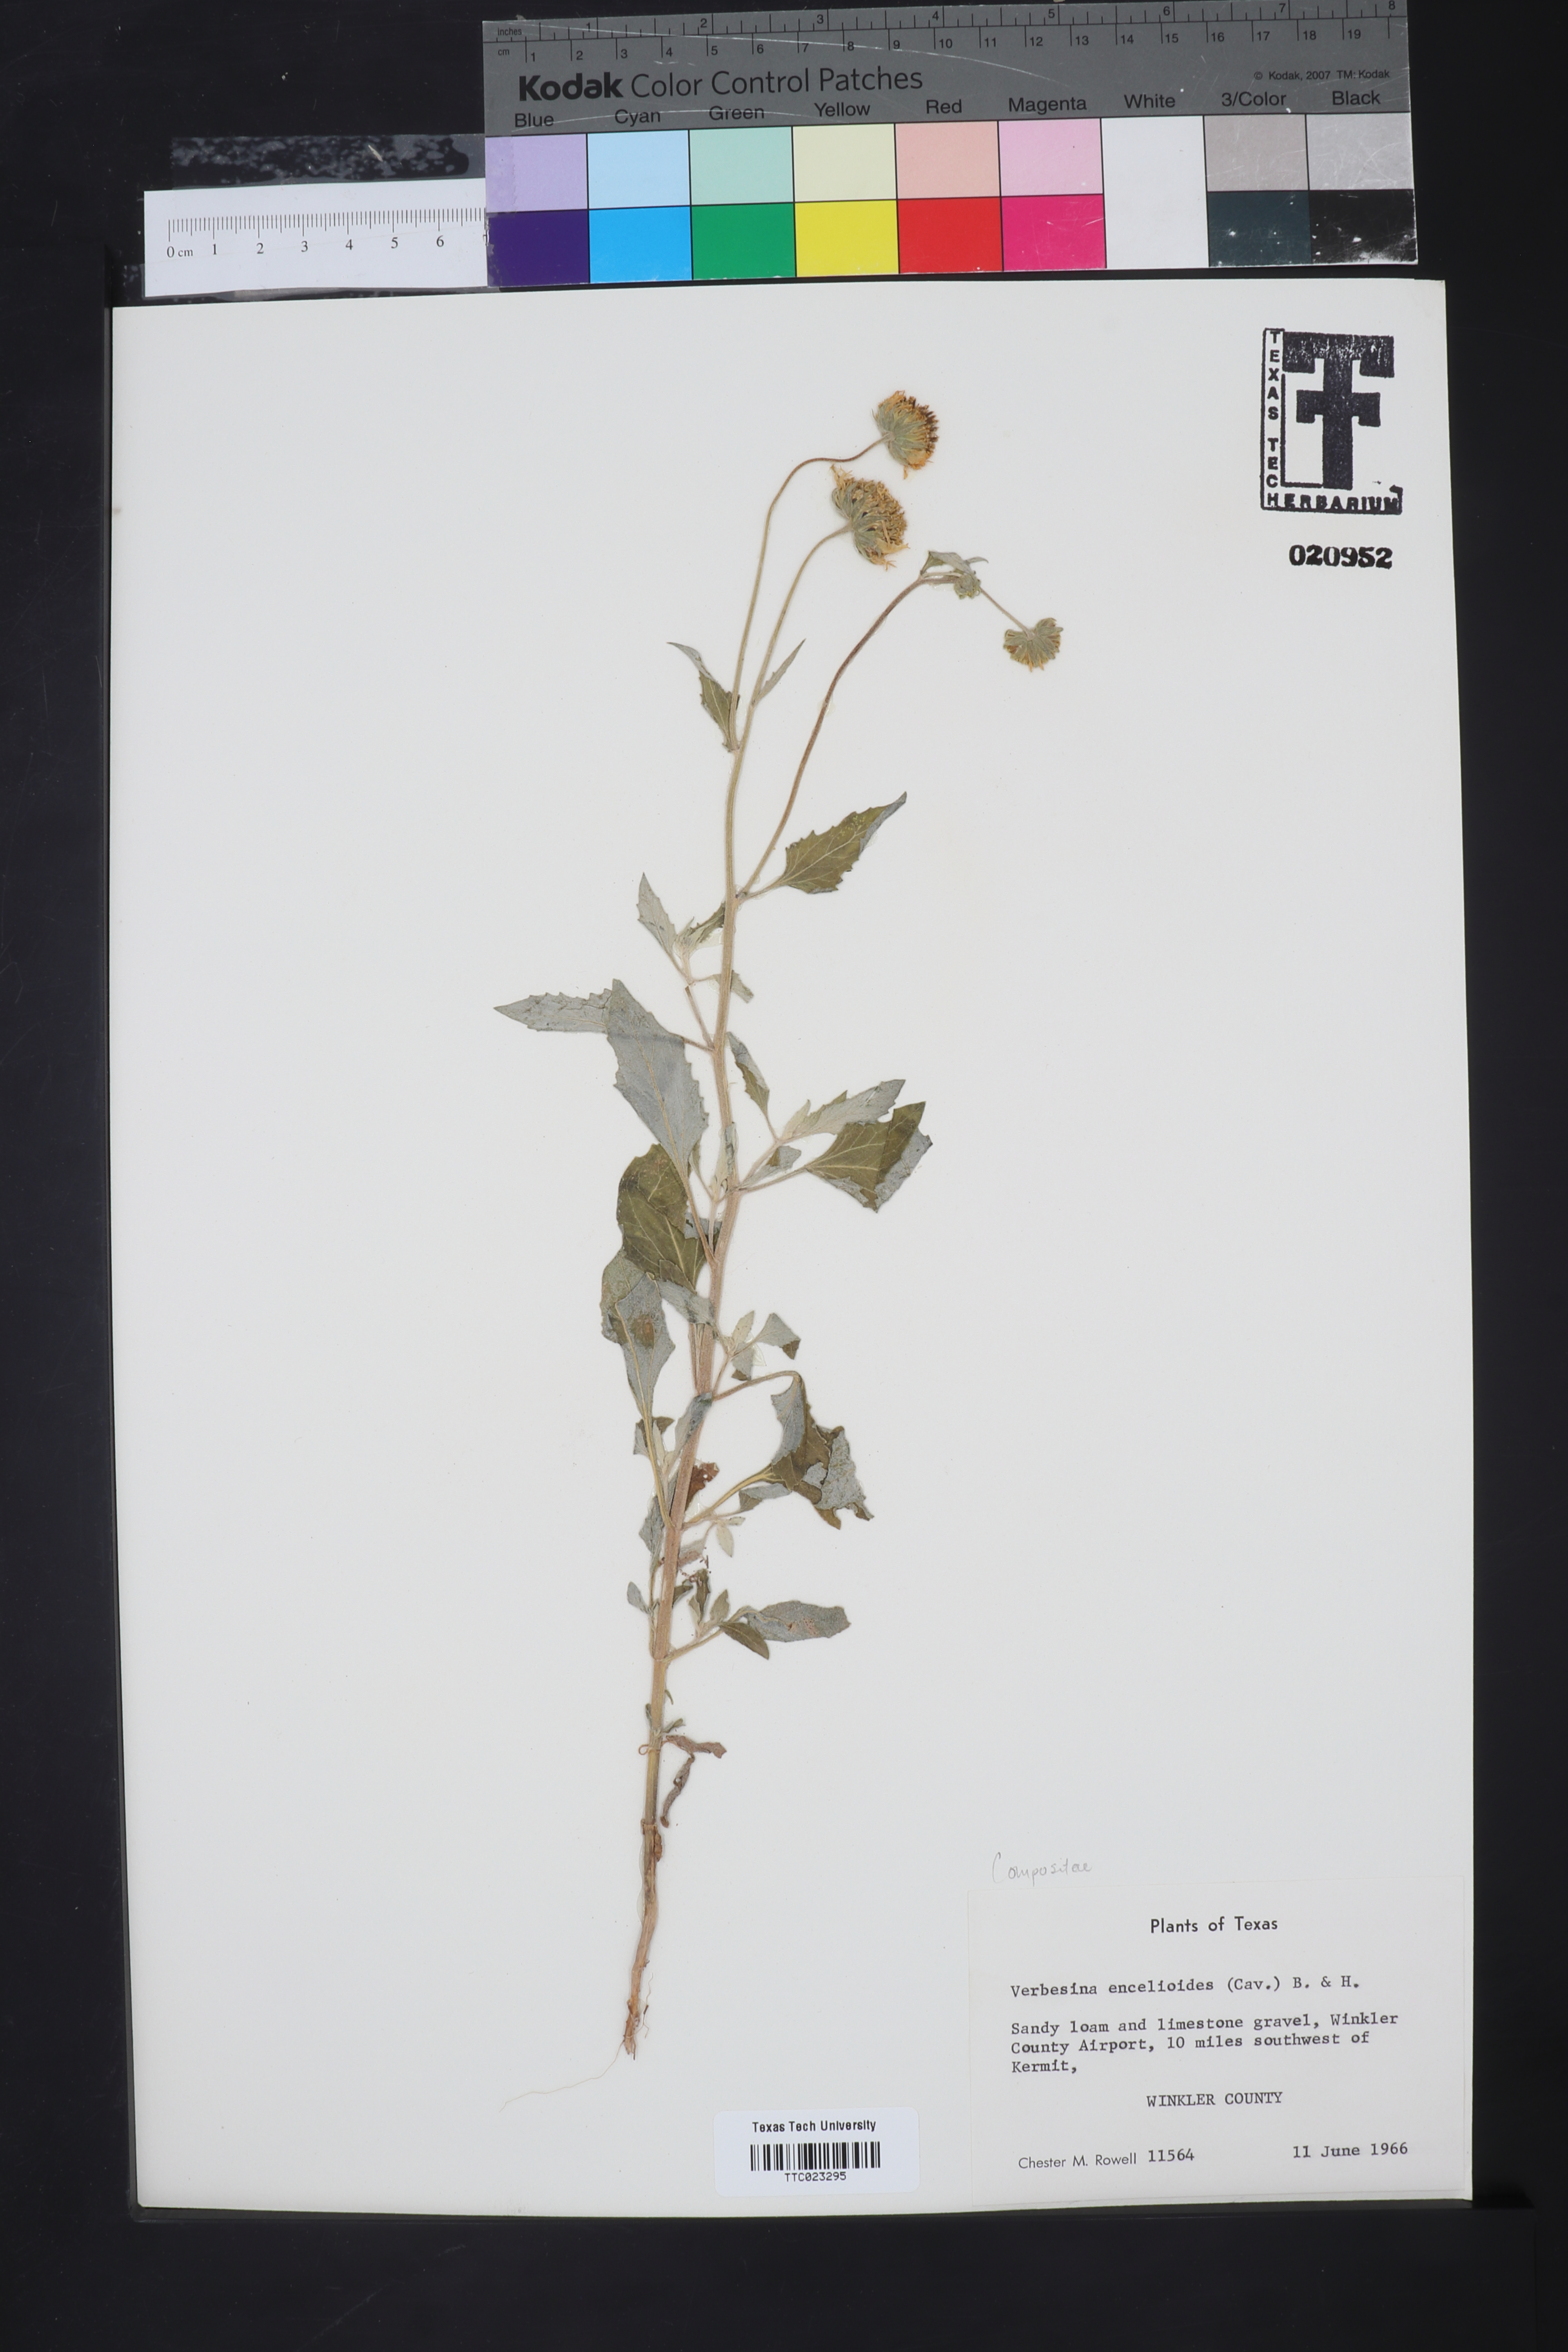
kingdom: Plantae
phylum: Tracheophyta
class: Magnoliopsida
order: Asterales
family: Asteraceae
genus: Verbesina
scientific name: Verbesina encelioides
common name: Golden crownbeard
